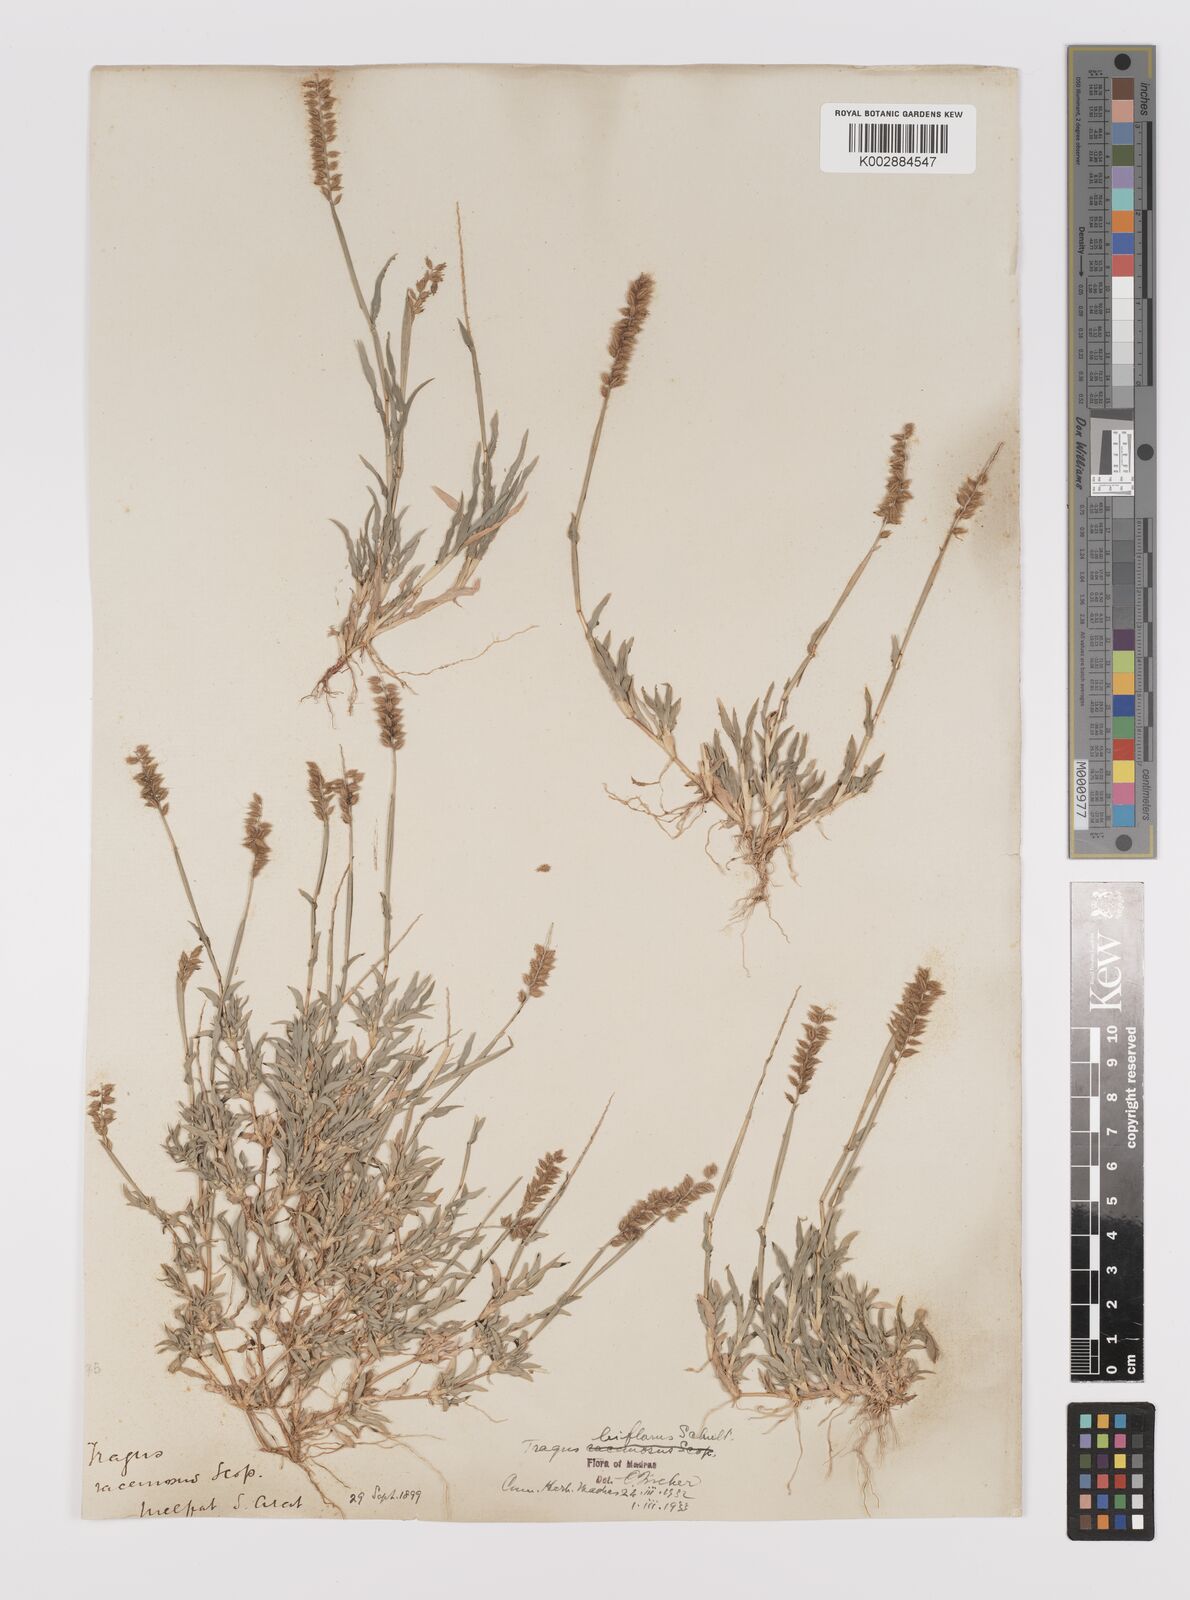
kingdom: Plantae
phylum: Tracheophyta
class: Liliopsida
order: Poales
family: Poaceae
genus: Tragus
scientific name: Tragus mongolorum
